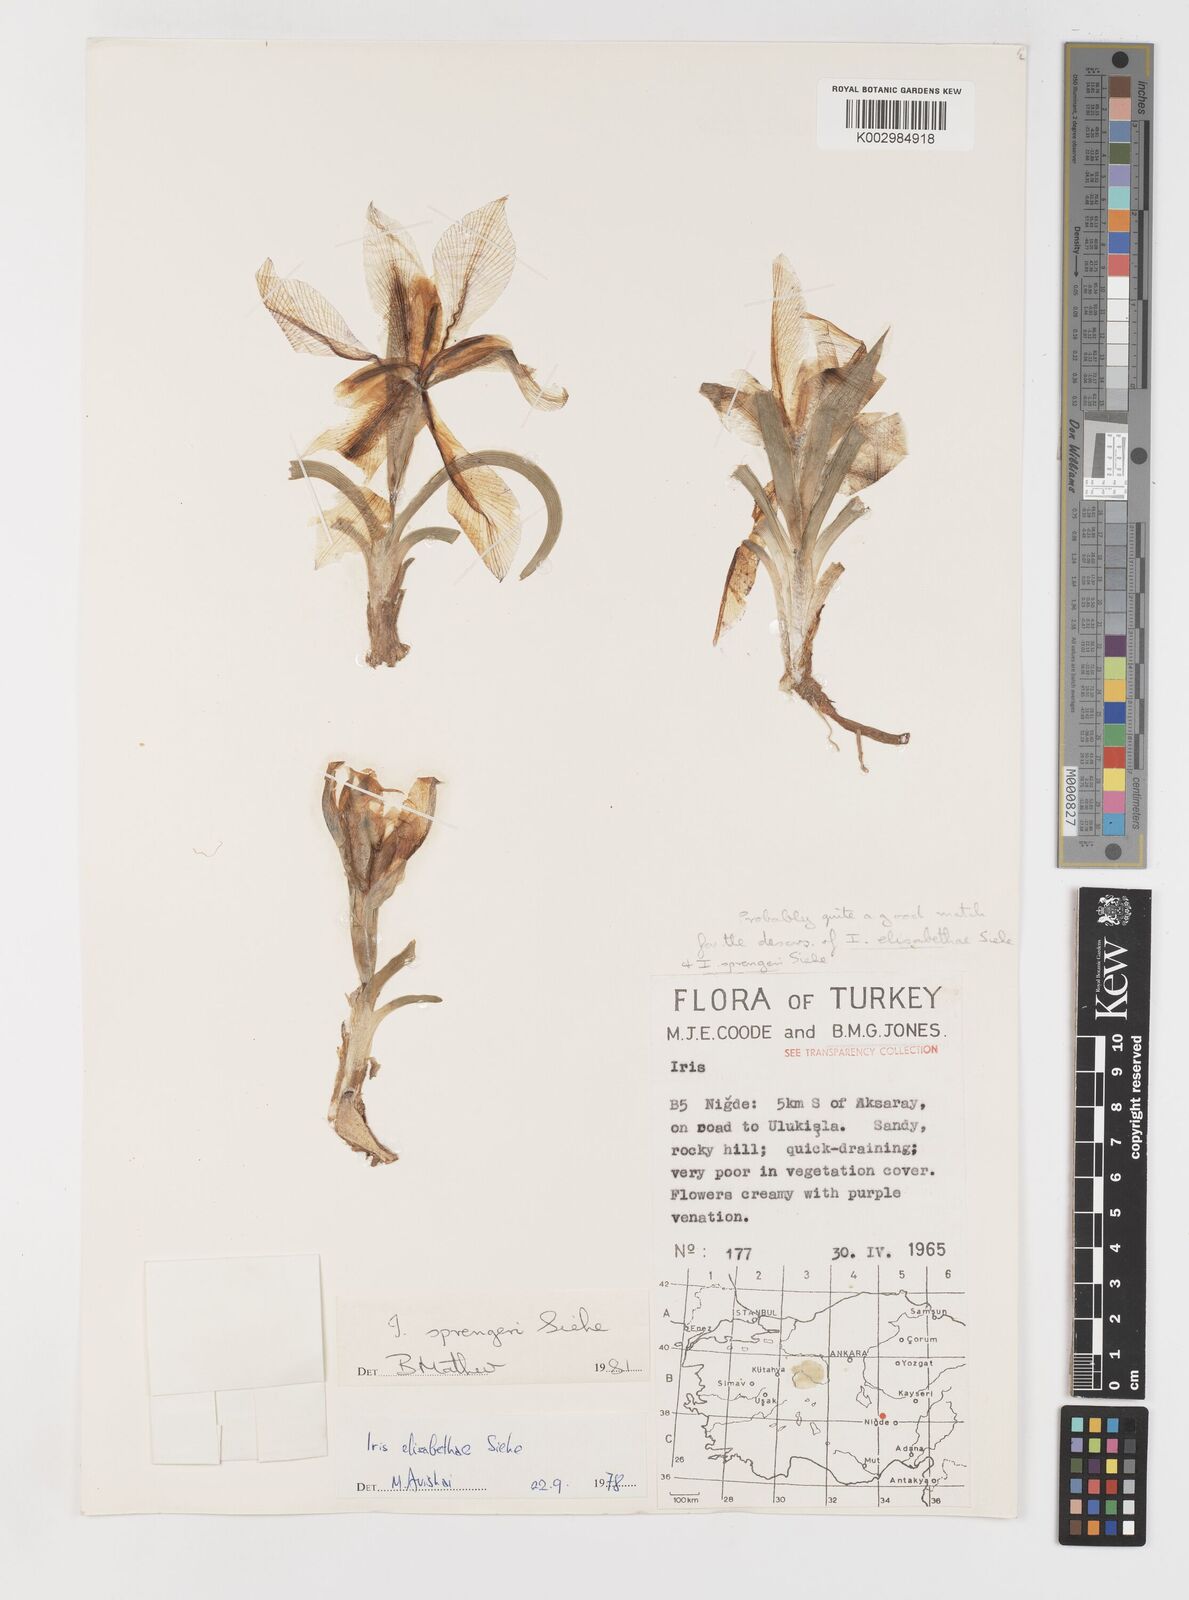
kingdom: Plantae
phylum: Tracheophyta
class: Liliopsida
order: Asparagales
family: Iridaceae
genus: Iris
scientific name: Iris sprengeri
